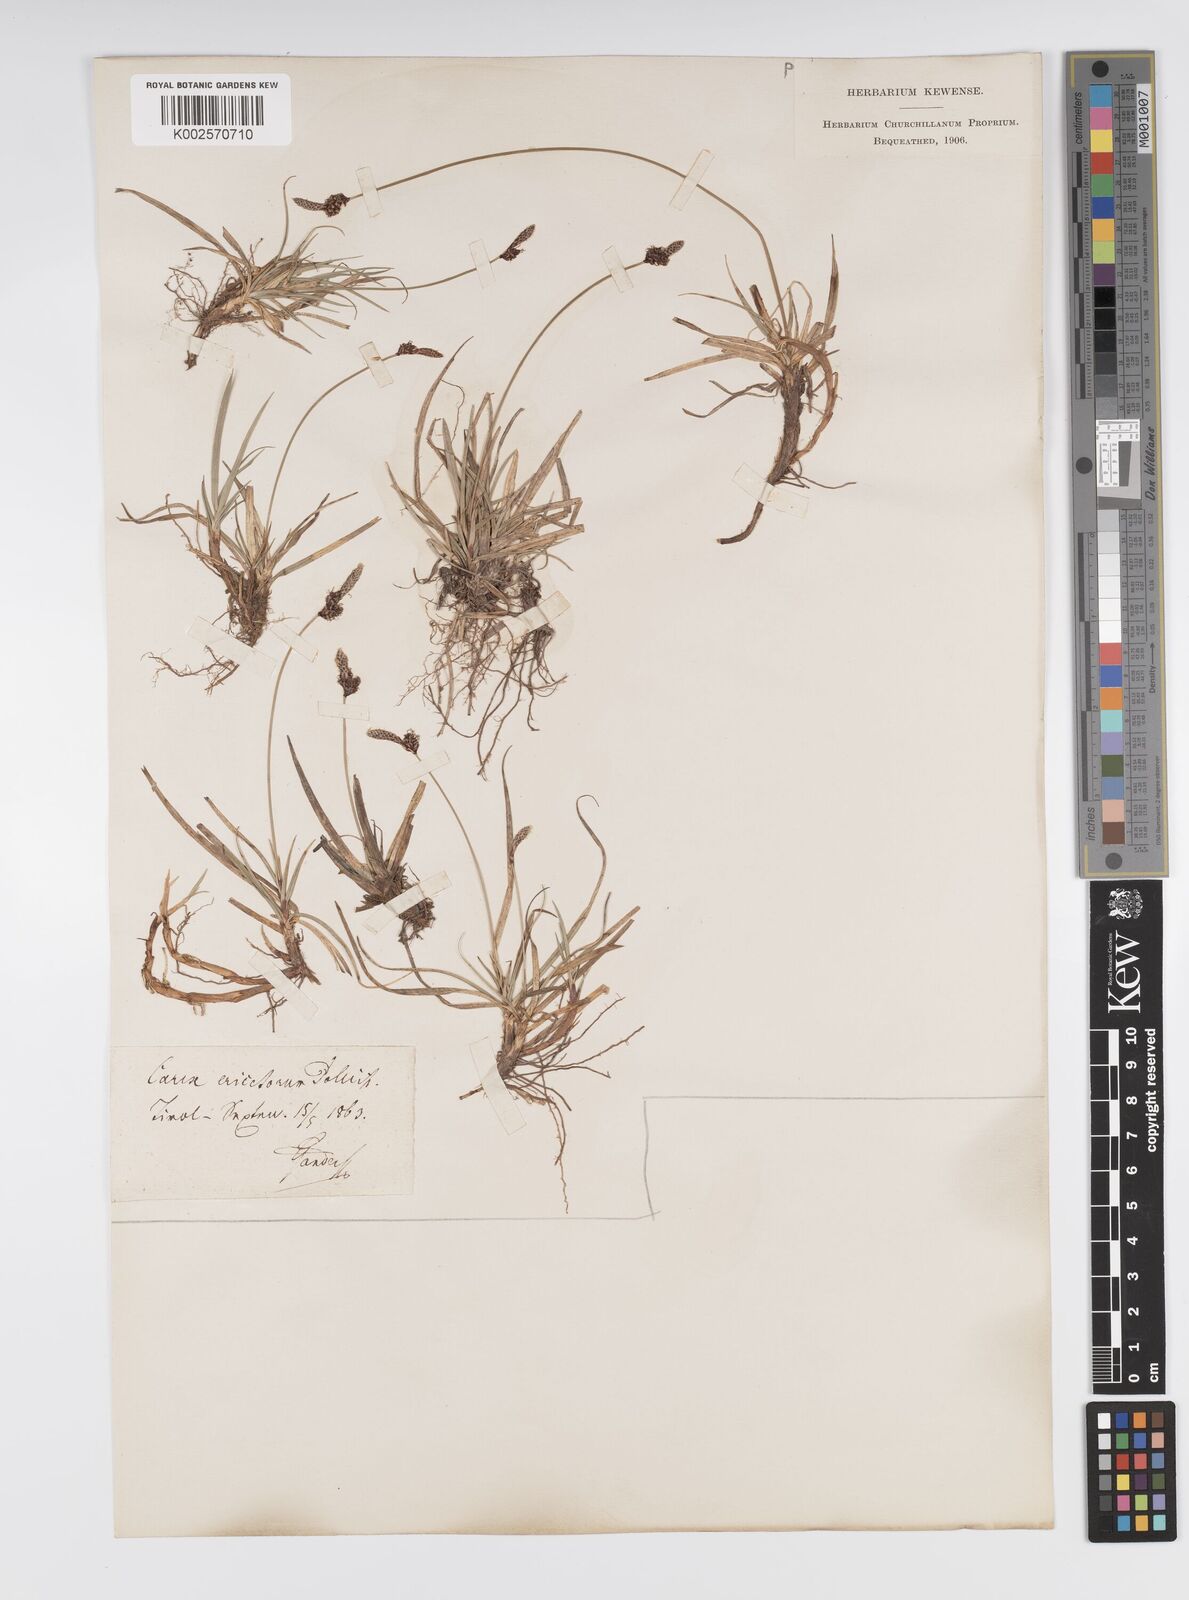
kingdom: Plantae
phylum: Tracheophyta
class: Liliopsida
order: Poales
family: Cyperaceae
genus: Carex
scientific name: Carex ericetorum
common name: Rare spring-sedge
